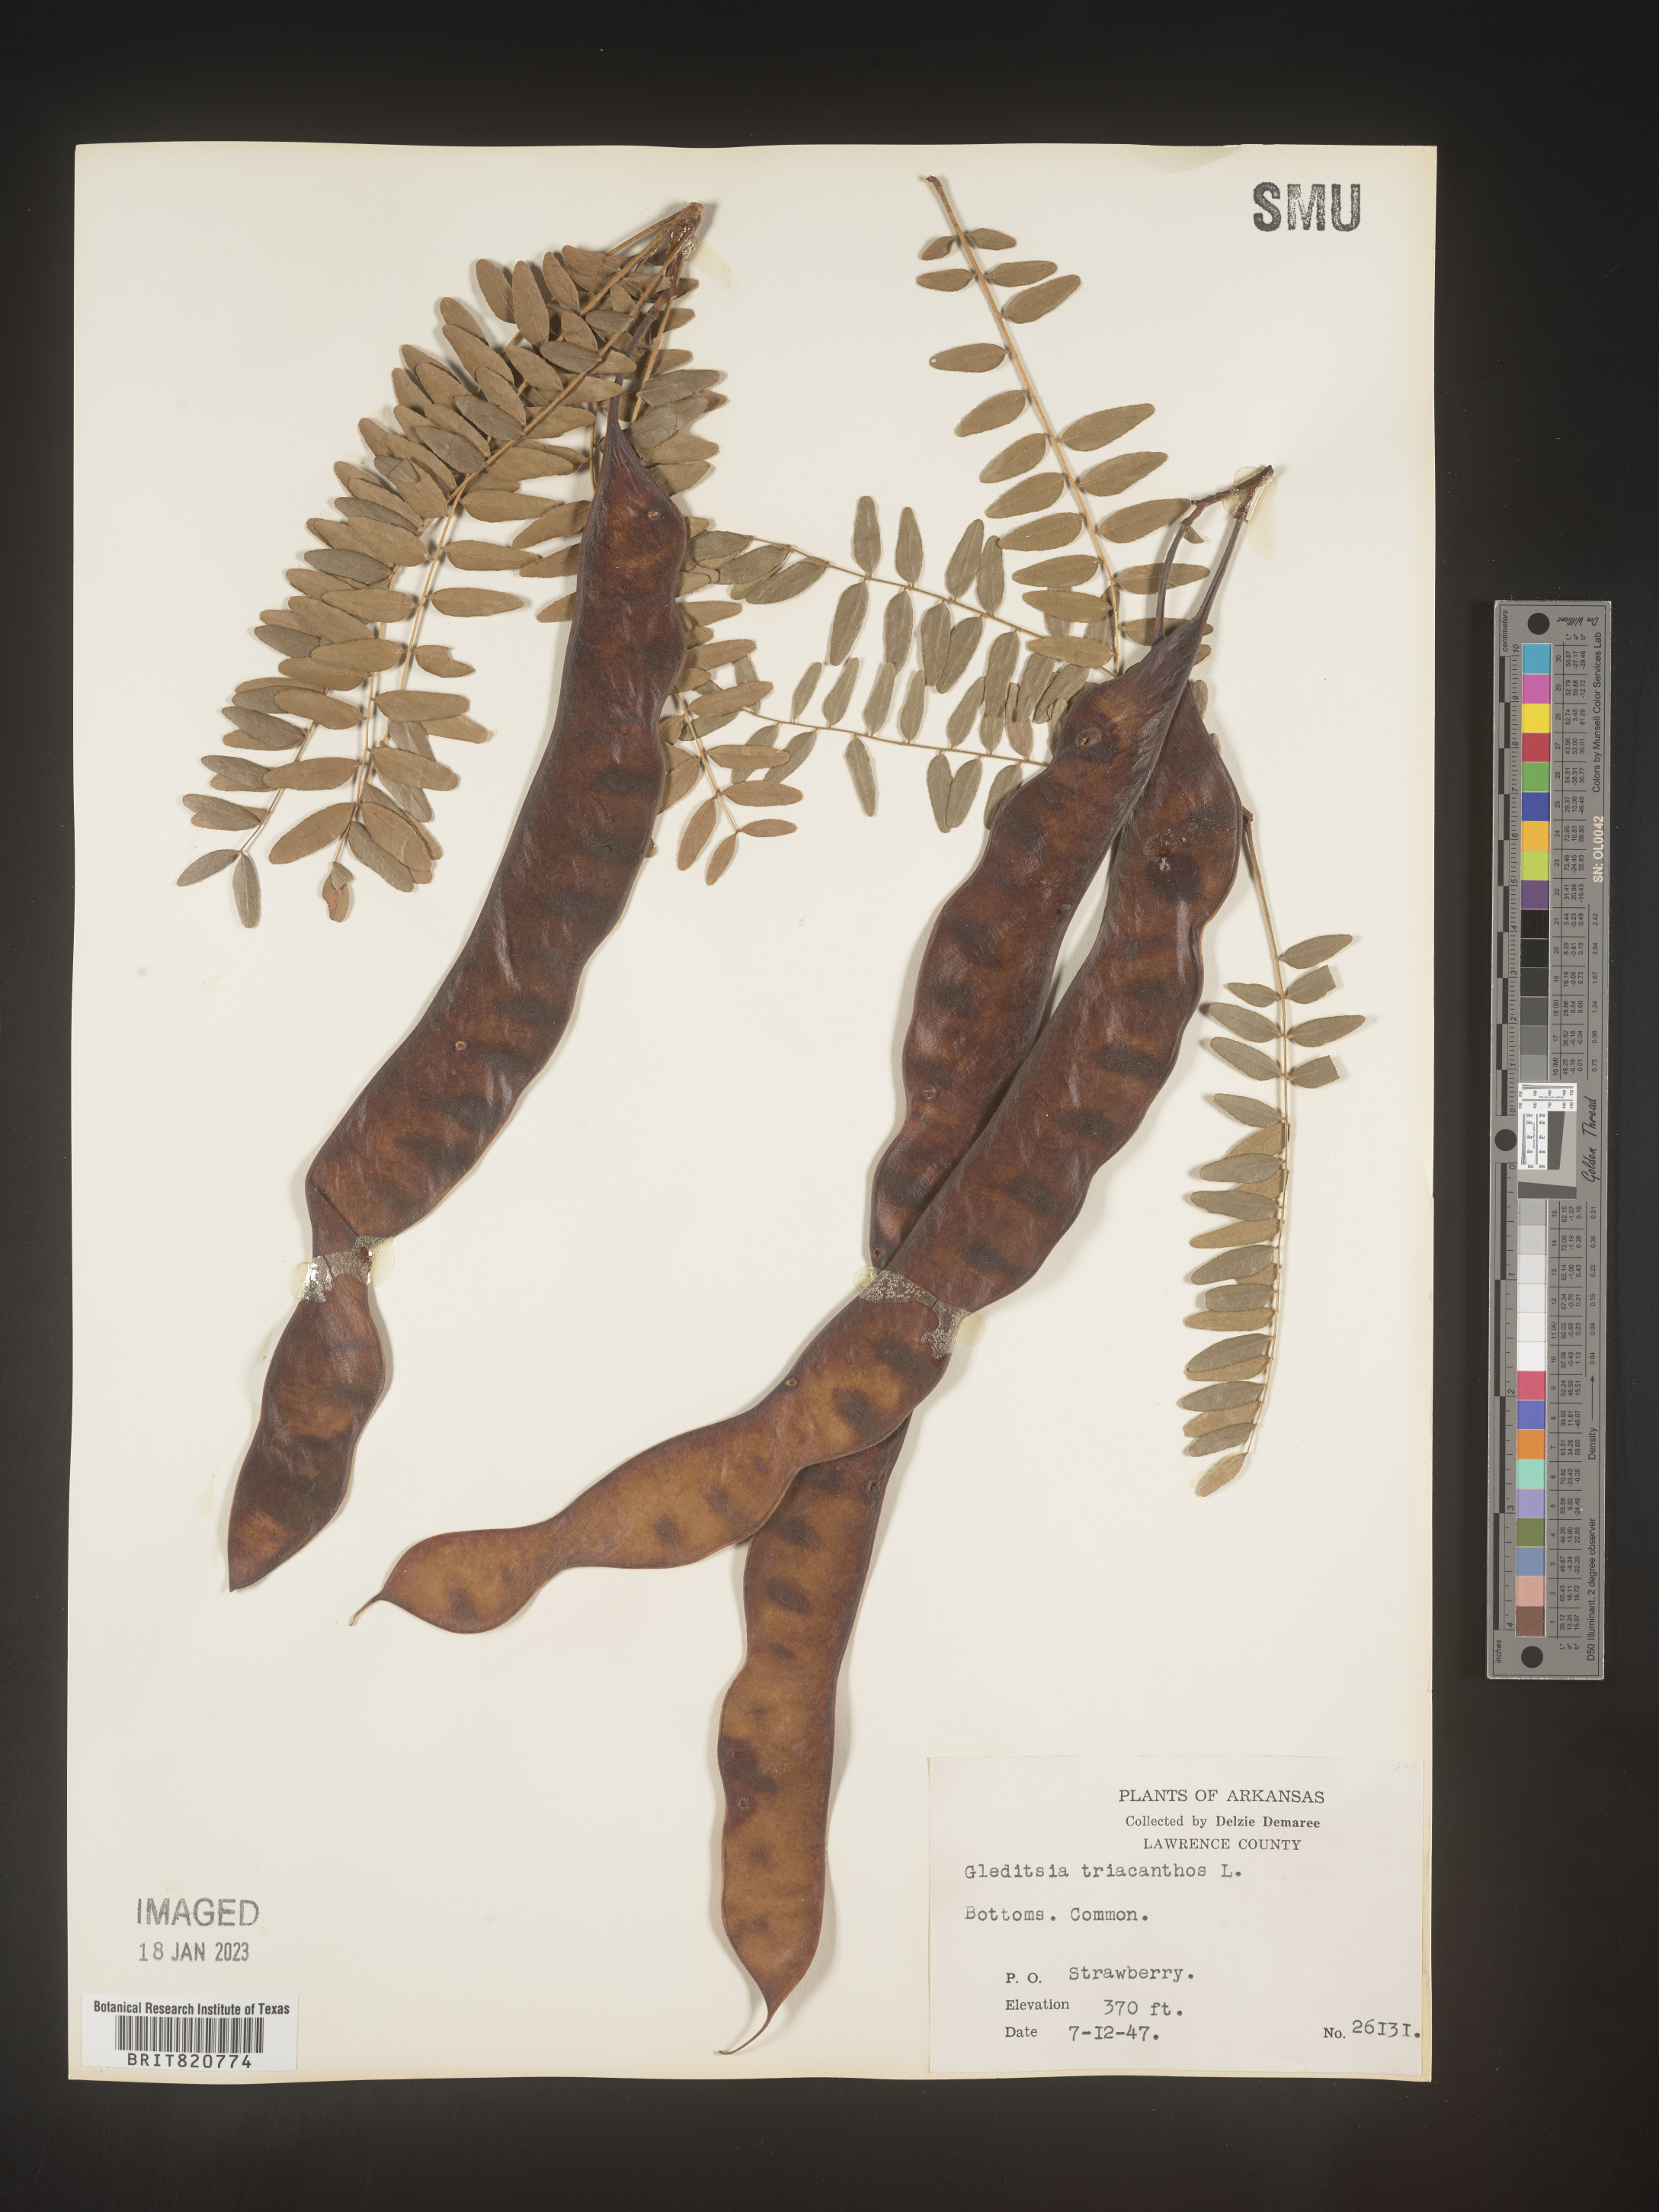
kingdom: Plantae
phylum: Tracheophyta
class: Magnoliopsida
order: Fabales
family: Fabaceae
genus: Gleditsia
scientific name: Gleditsia triacanthos
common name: Common honeylocust
